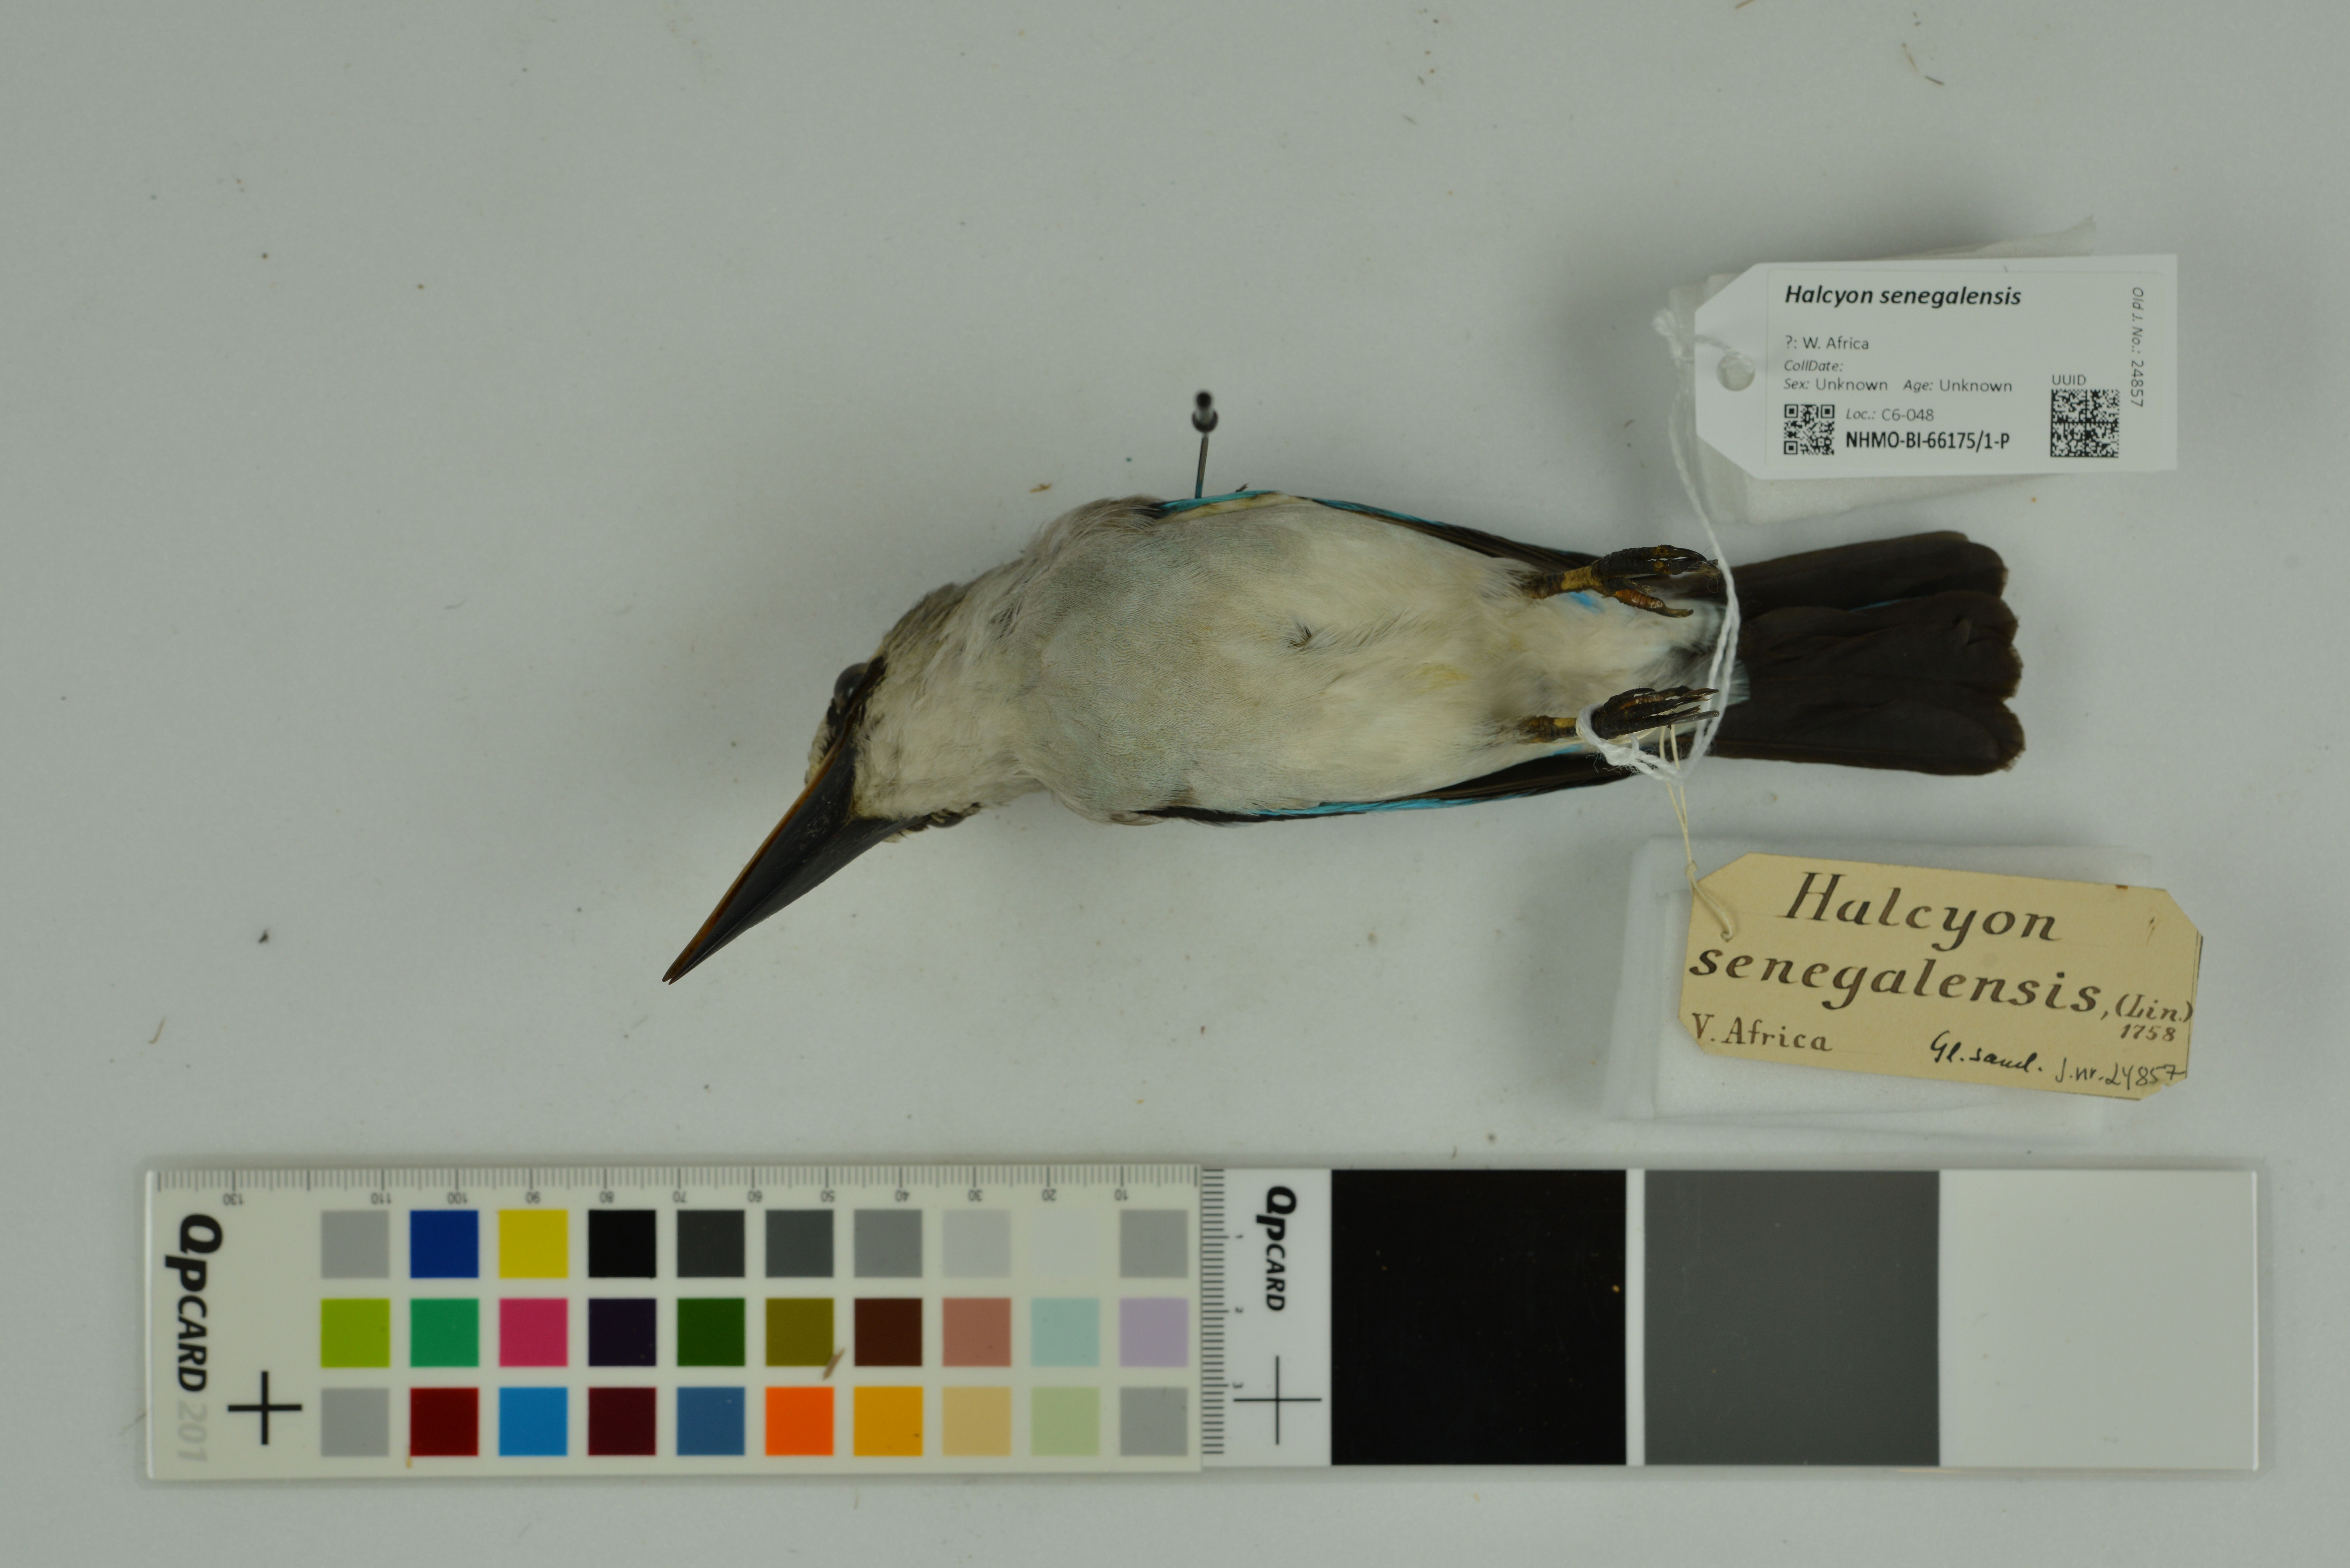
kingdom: Animalia
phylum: Chordata
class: Aves
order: Coraciiformes
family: Alcedinidae
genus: Halcyon
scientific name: Halcyon senegalensis
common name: Woodland kingfisher
